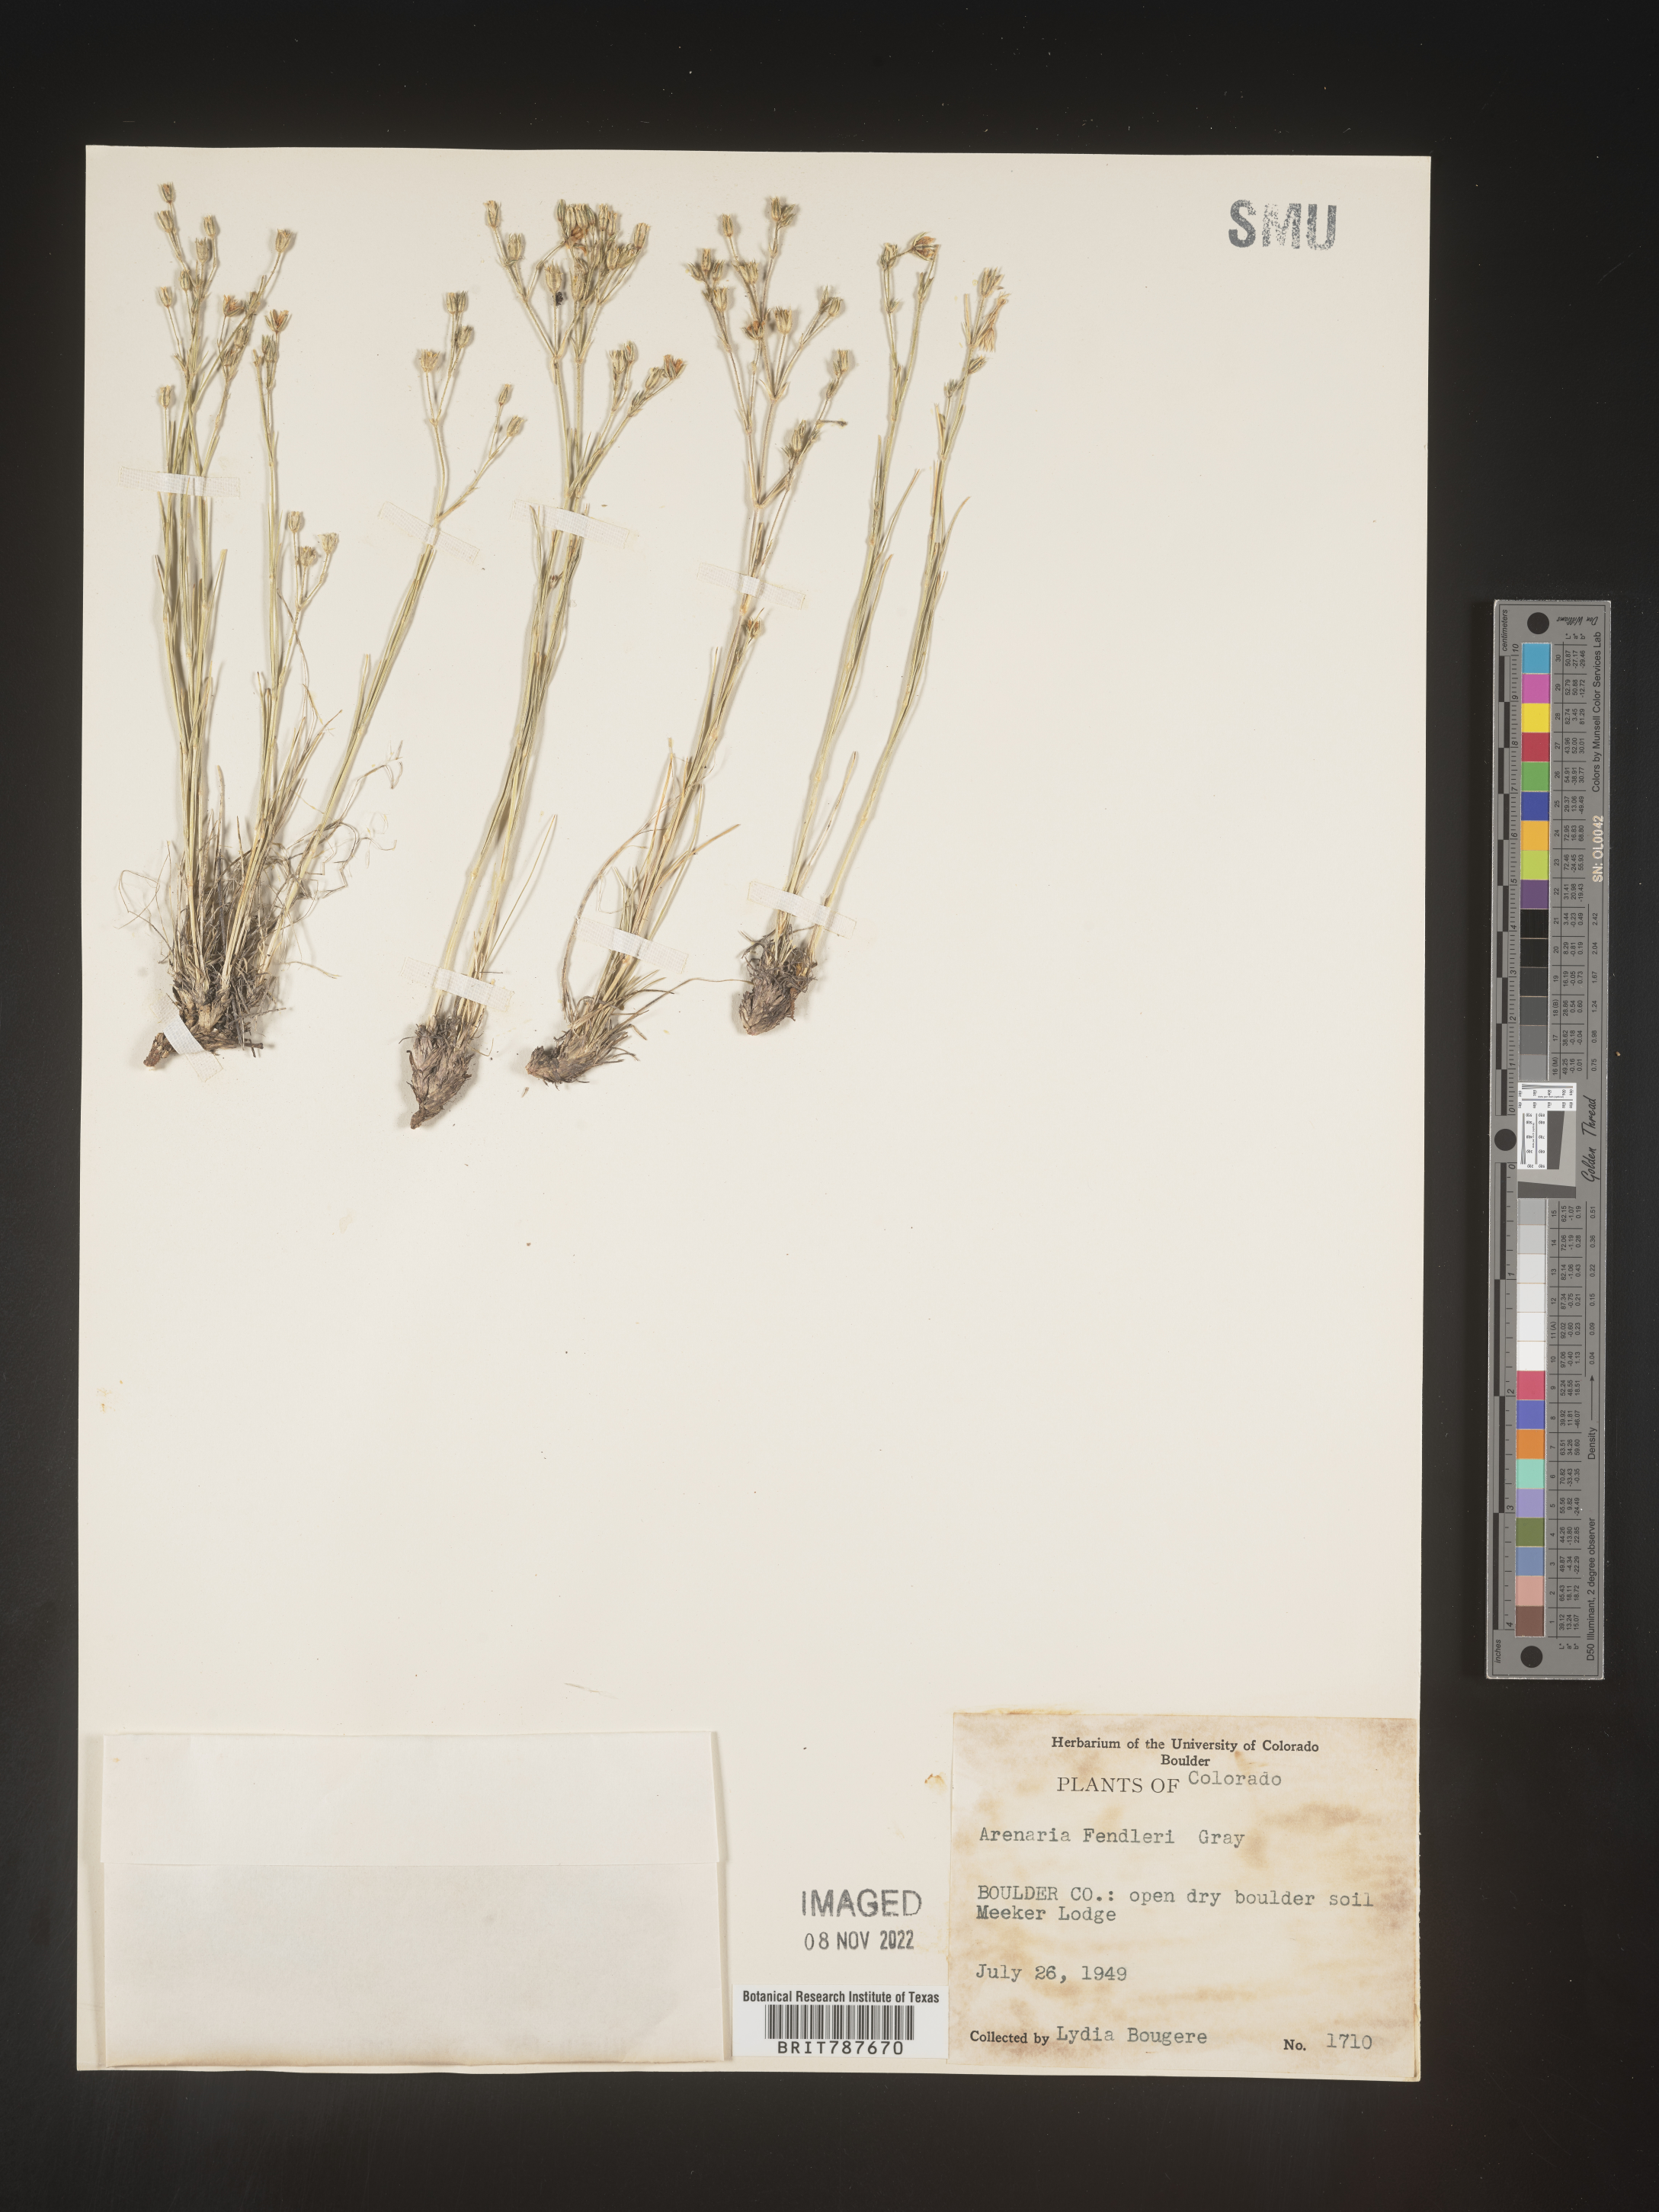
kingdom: Plantae
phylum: Tracheophyta
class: Magnoliopsida
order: Caryophyllales
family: Caryophyllaceae
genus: Arenaria
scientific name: Arenaria
